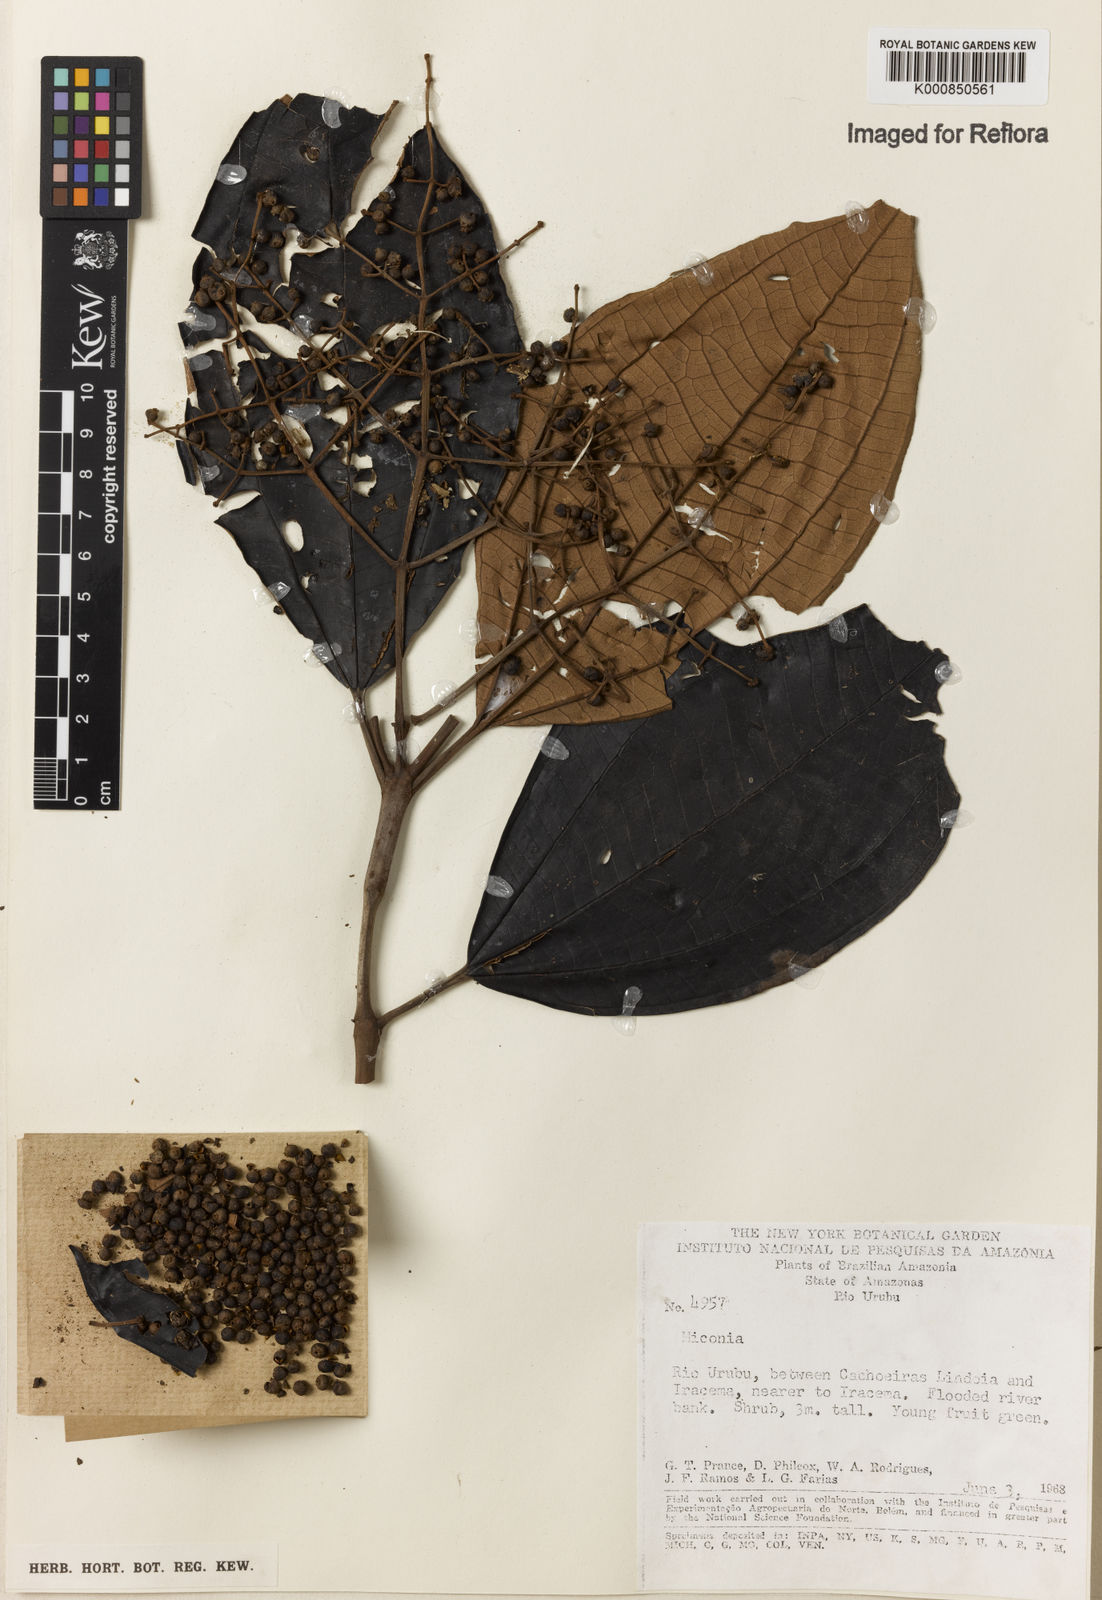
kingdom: Plantae
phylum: Tracheophyta
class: Magnoliopsida
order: Myrtales
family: Melastomataceae
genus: Miconia
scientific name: Miconia
